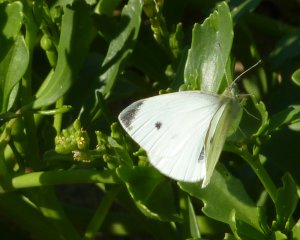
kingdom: Animalia
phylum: Arthropoda
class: Insecta
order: Lepidoptera
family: Pieridae
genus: Pieris
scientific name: Pieris rapae
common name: Cabbage White
